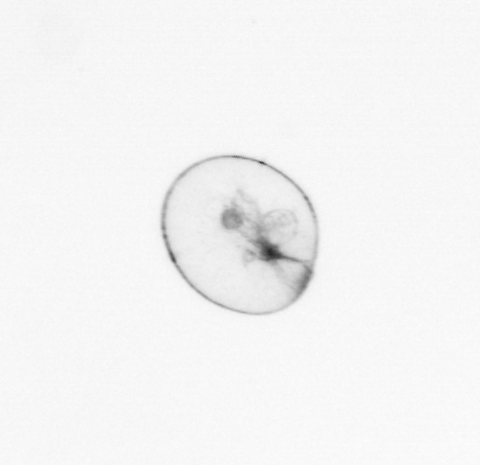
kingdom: Chromista
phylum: Myzozoa
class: Dinophyceae
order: Noctilucales
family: Noctilucaceae
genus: Noctiluca
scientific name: Noctiluca scintillans
